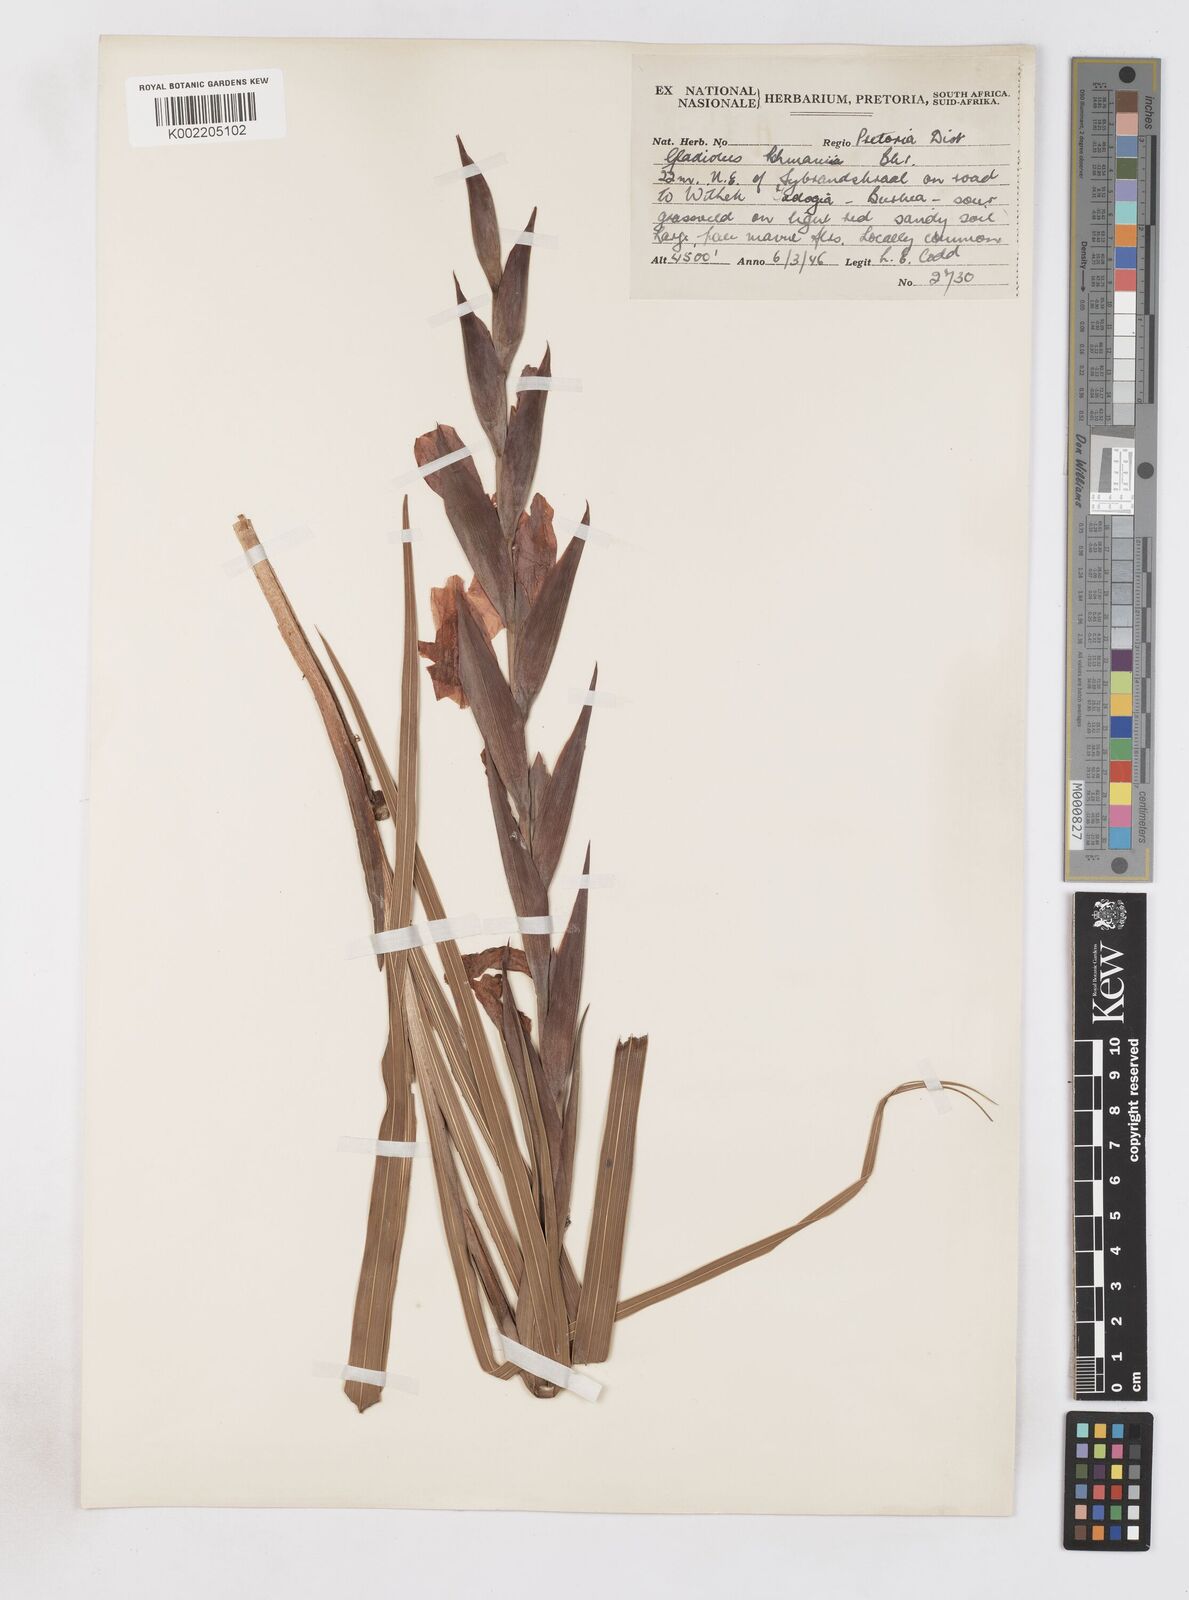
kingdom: Plantae
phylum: Tracheophyta
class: Liliopsida
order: Asparagales
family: Iridaceae
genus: Gladiolus
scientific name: Gladiolus rehmannii
